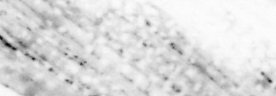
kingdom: Animalia
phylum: Chordata
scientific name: Chordata
